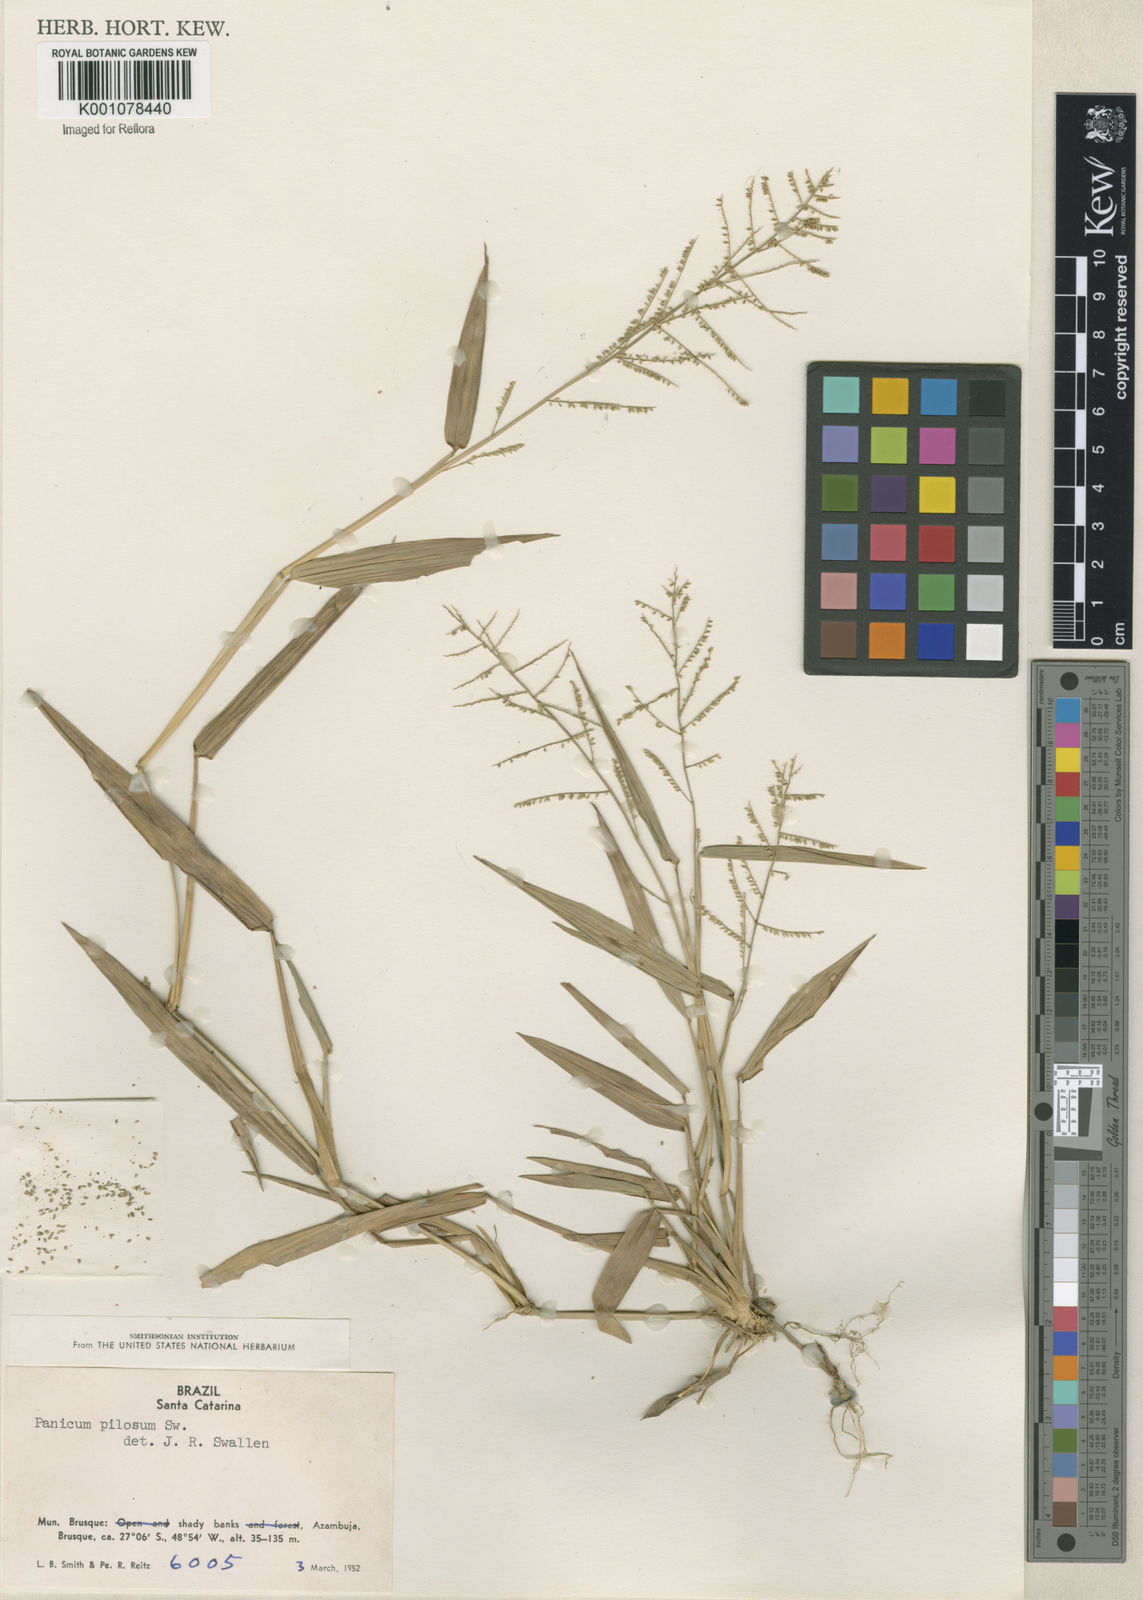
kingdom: Plantae
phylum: Tracheophyta
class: Liliopsida
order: Poales
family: Poaceae
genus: Rugoloa
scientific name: Rugoloa pilosa
